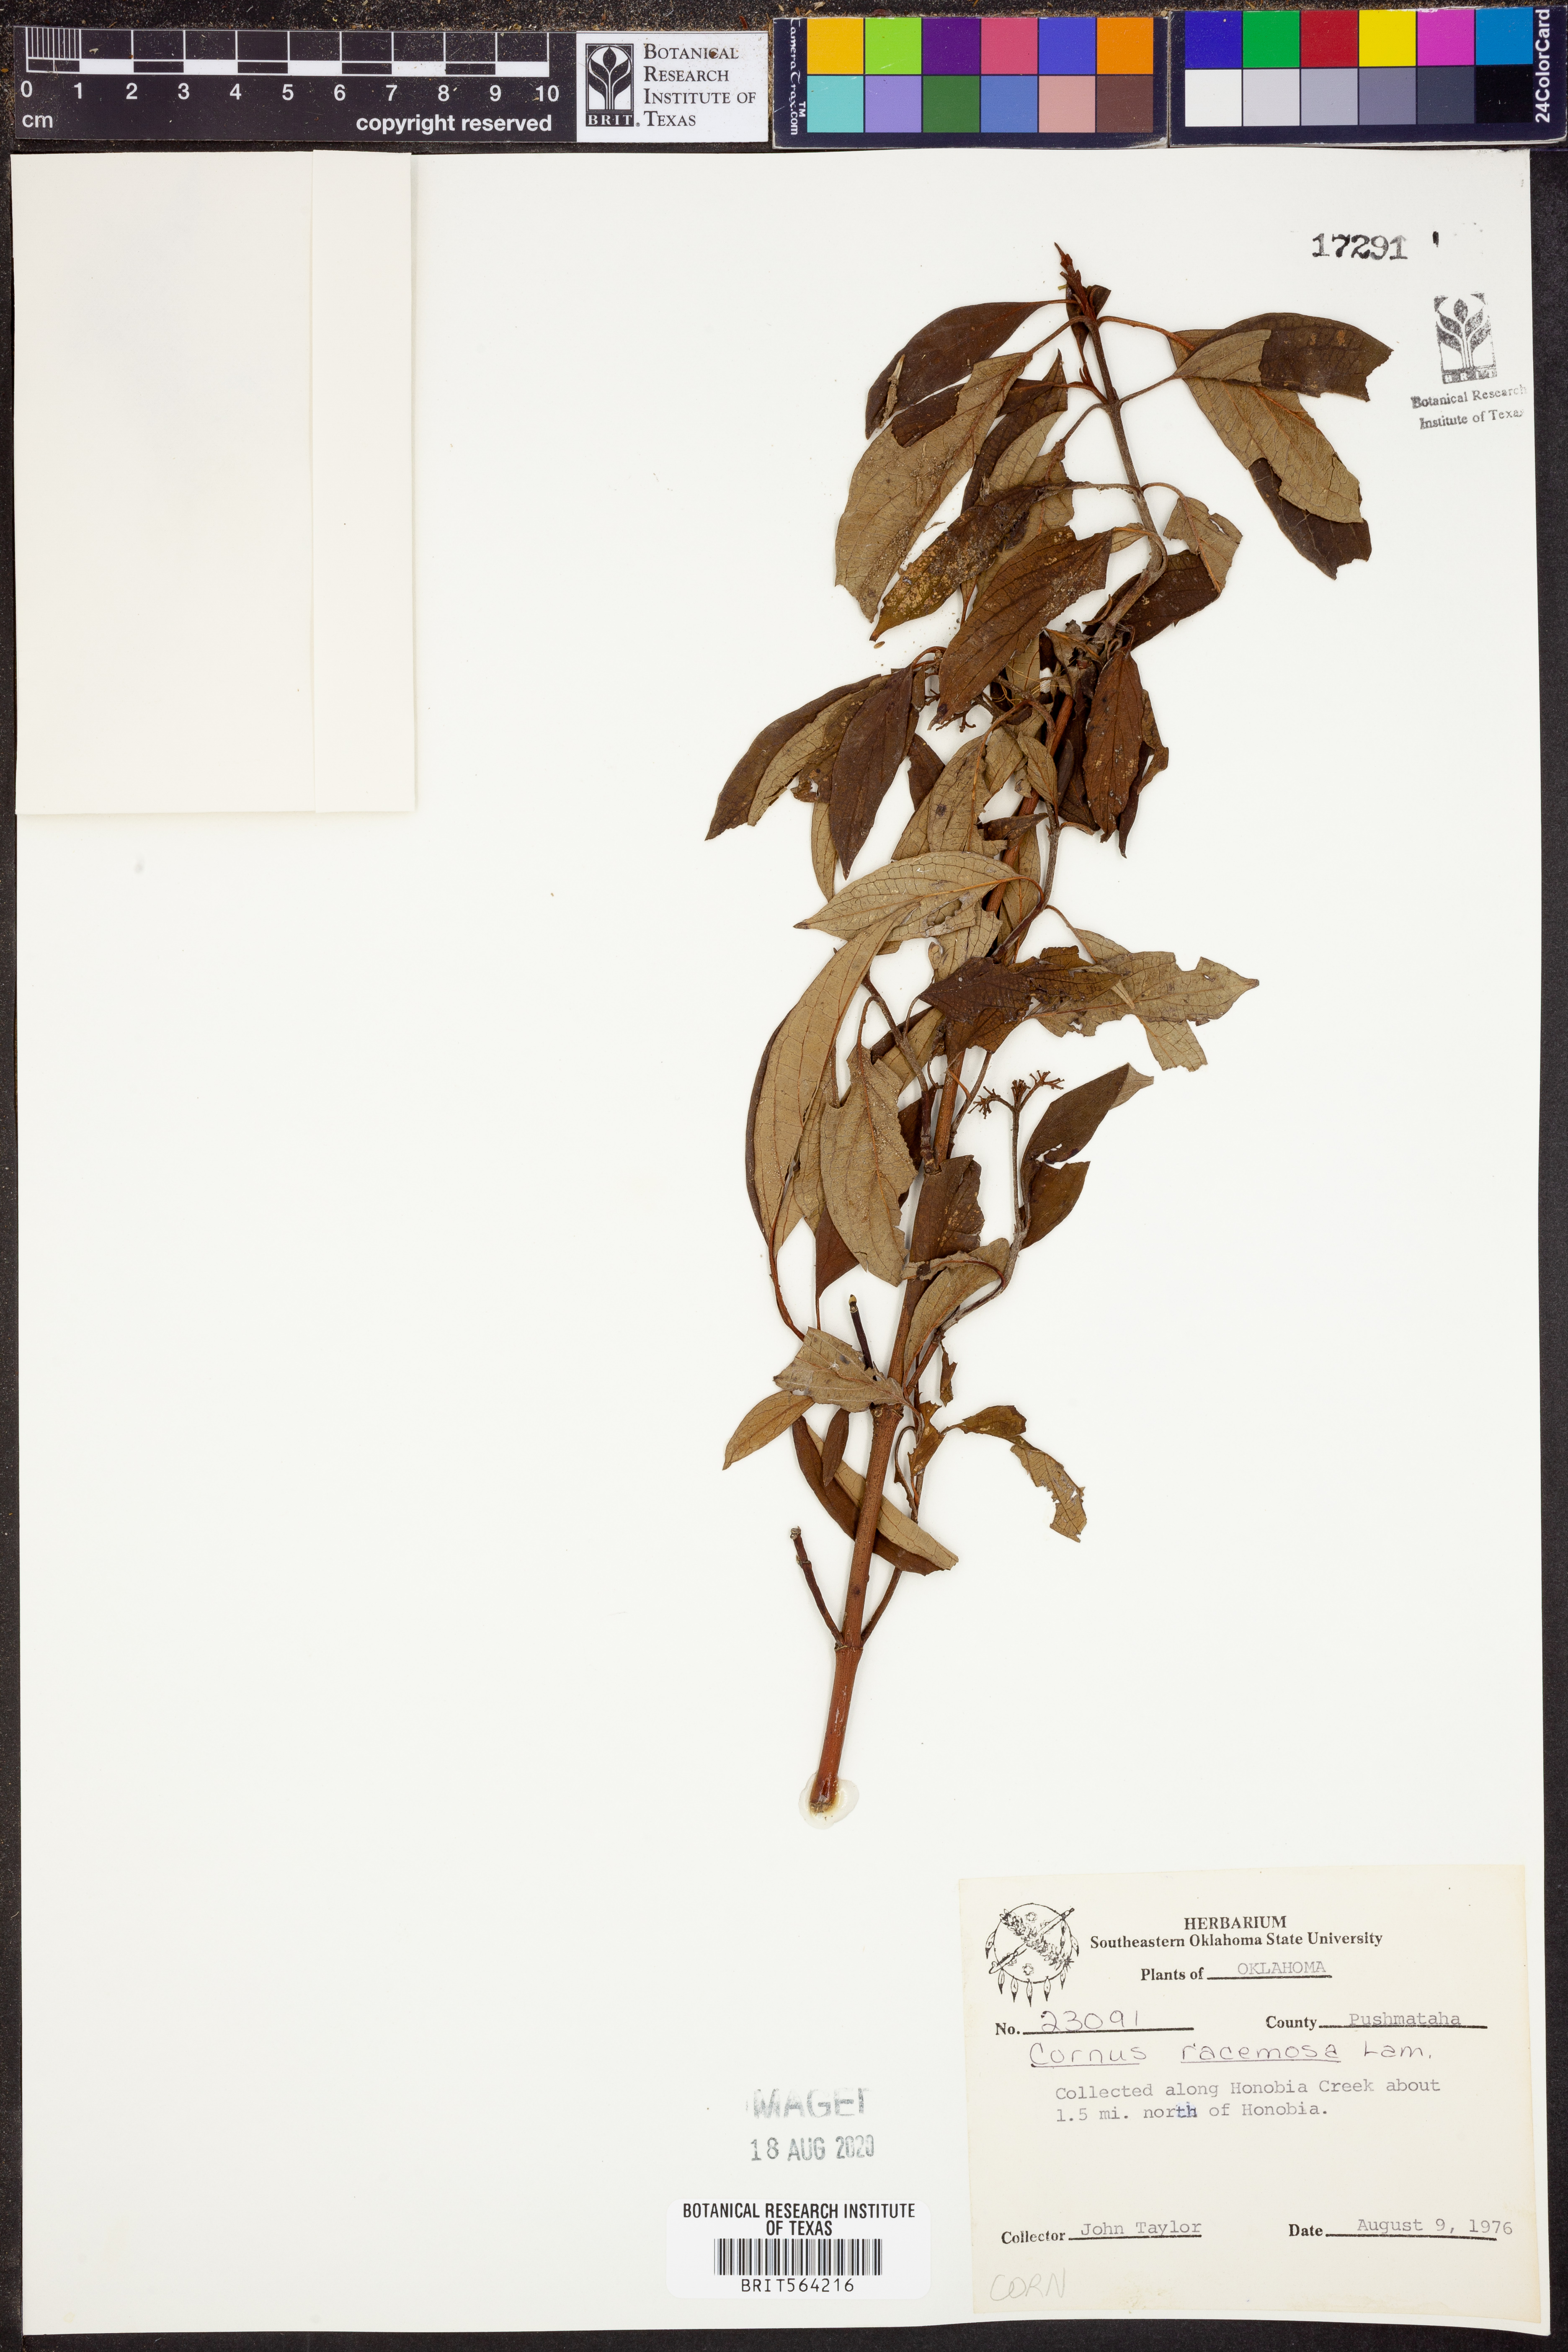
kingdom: Plantae
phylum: Tracheophyta
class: Magnoliopsida
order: Cornales
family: Cornaceae
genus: Cornus
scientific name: Cornus racemosa
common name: Panicled dogwood
